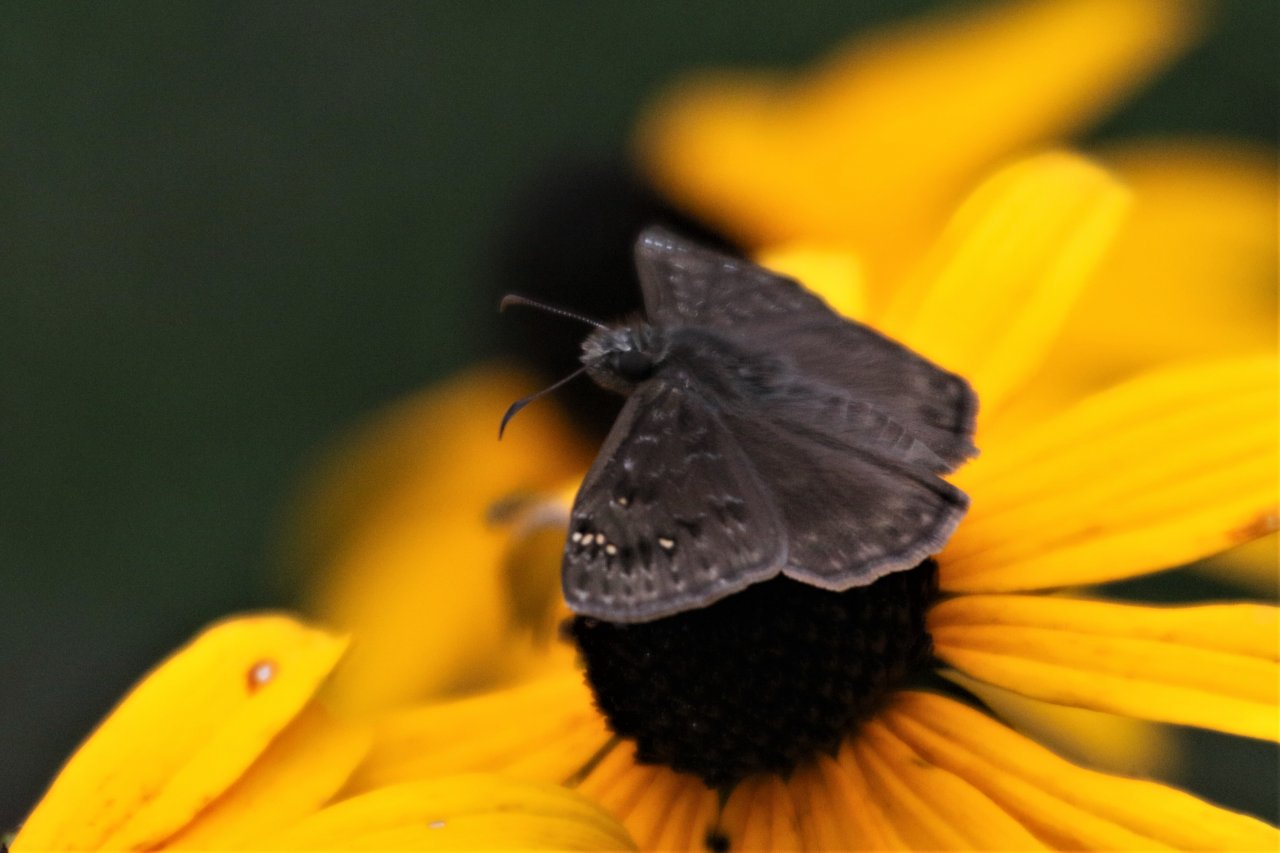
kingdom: Animalia
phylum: Arthropoda
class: Insecta
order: Lepidoptera
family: Hesperiidae
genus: Gesta
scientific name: Gesta
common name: Horace's Duskywing
